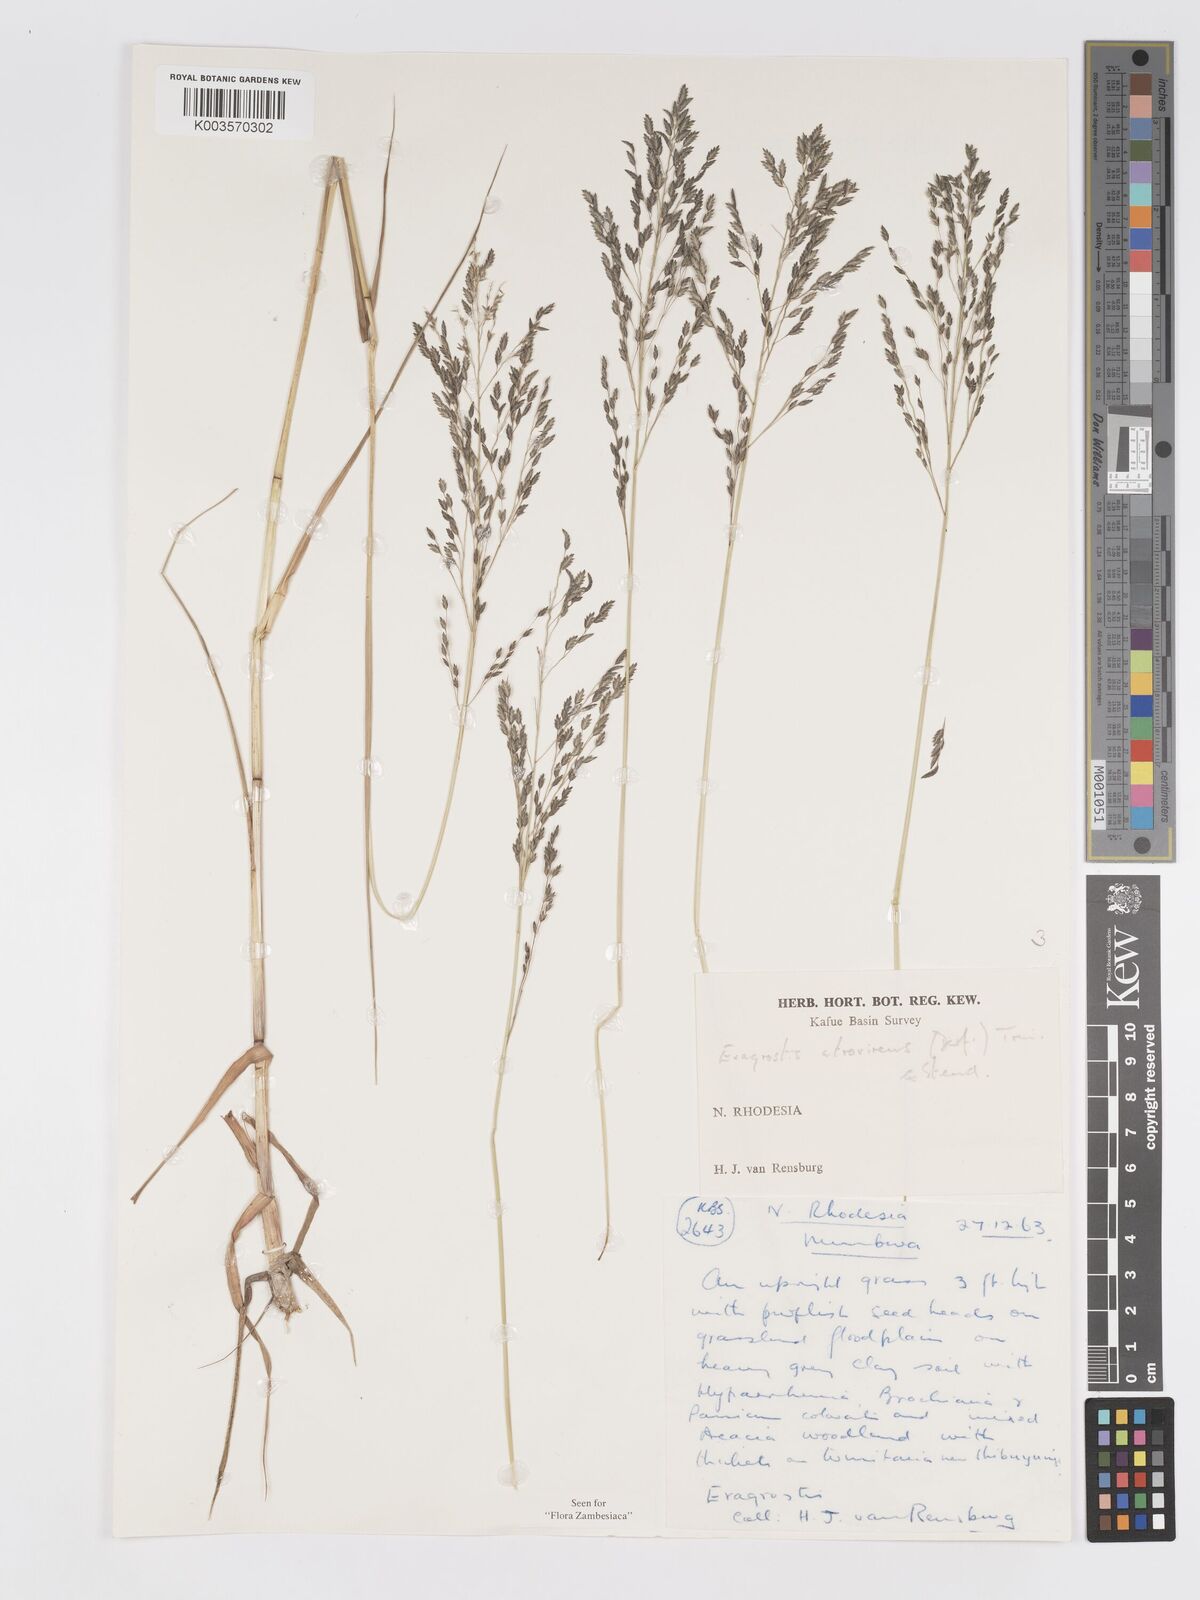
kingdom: Plantae
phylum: Tracheophyta
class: Liliopsida
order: Poales
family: Poaceae
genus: Eragrostis
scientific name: Eragrostis atrovirens
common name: Thalia lovegrass
